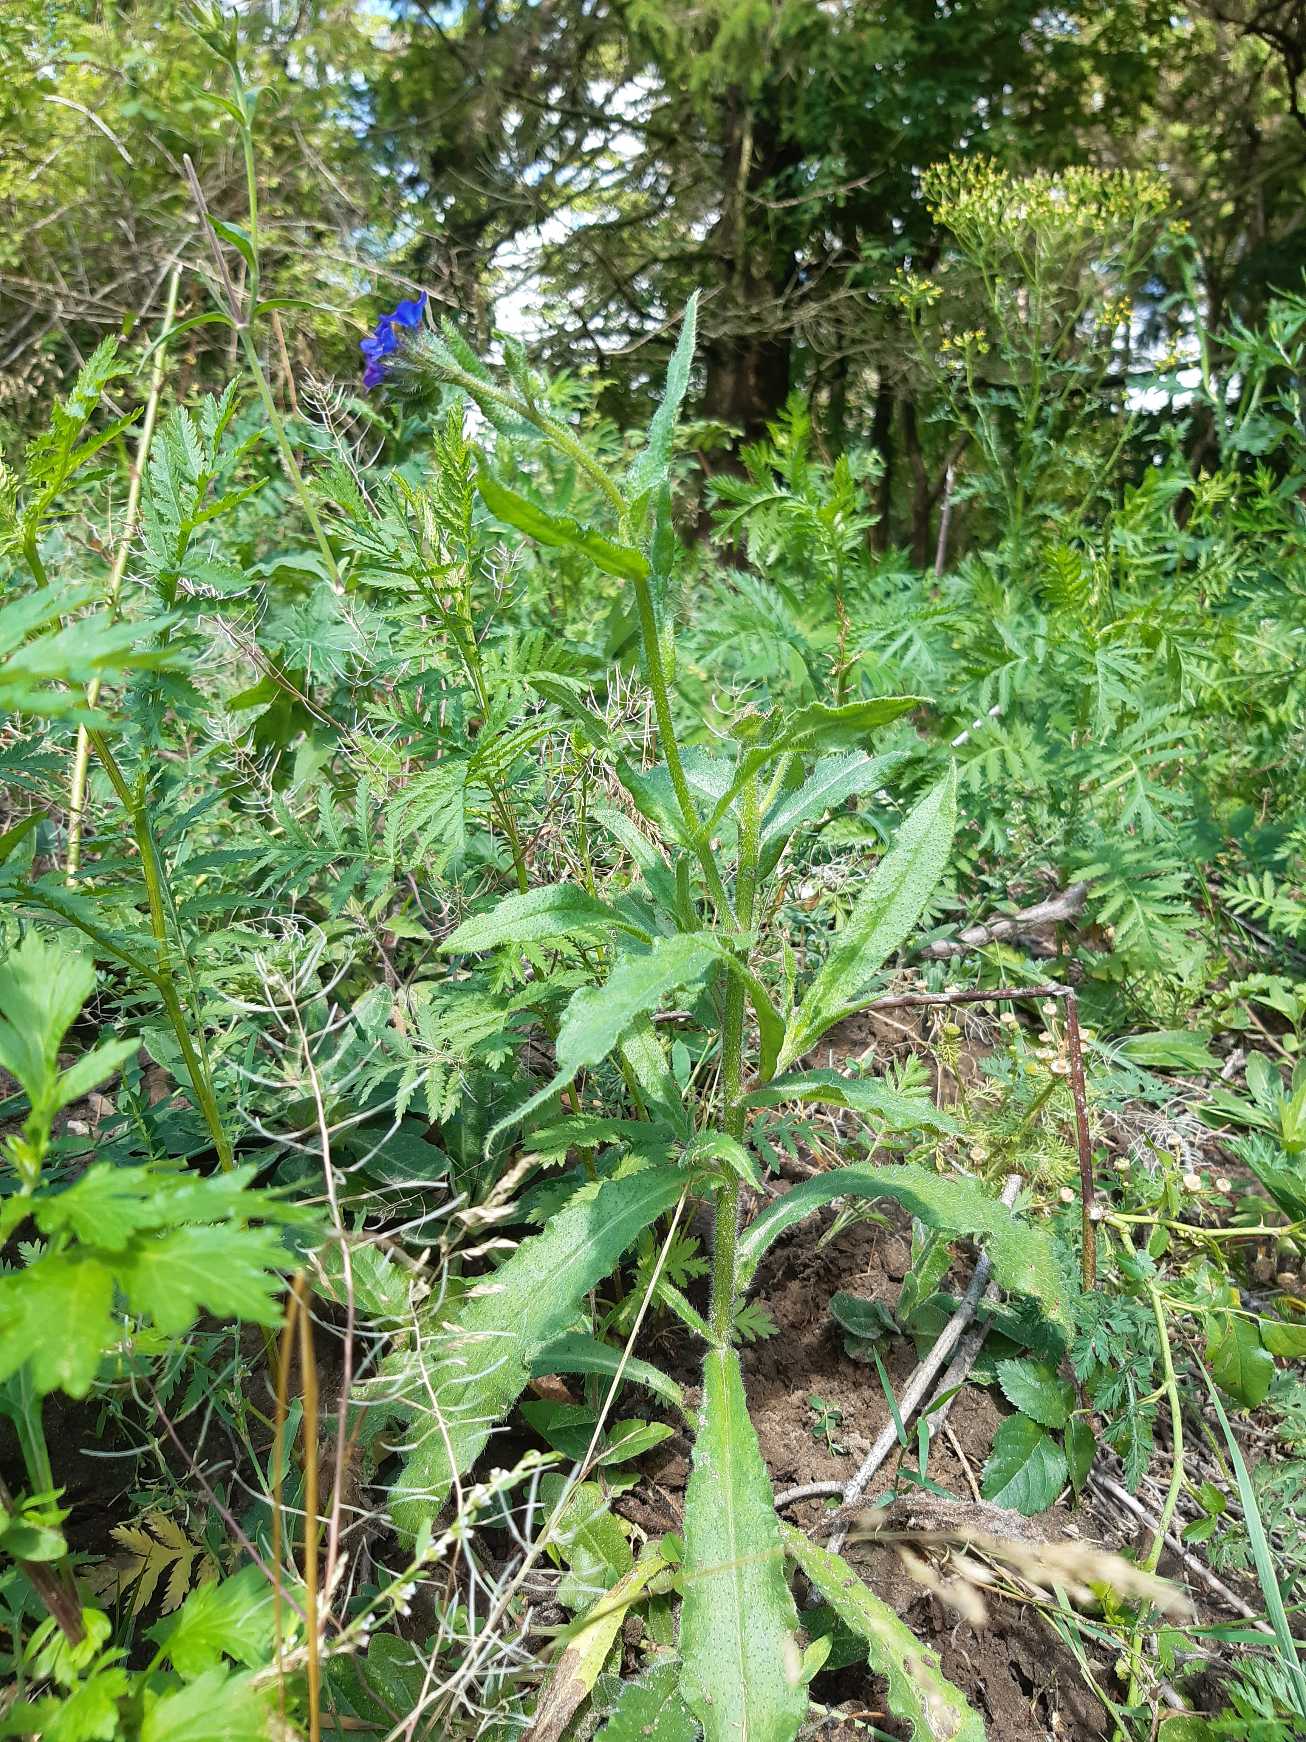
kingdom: Plantae
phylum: Tracheophyta
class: Magnoliopsida
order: Boraginales
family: Boraginaceae
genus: Anchusa
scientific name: Anchusa officinalis
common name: Læge-oksetunge
